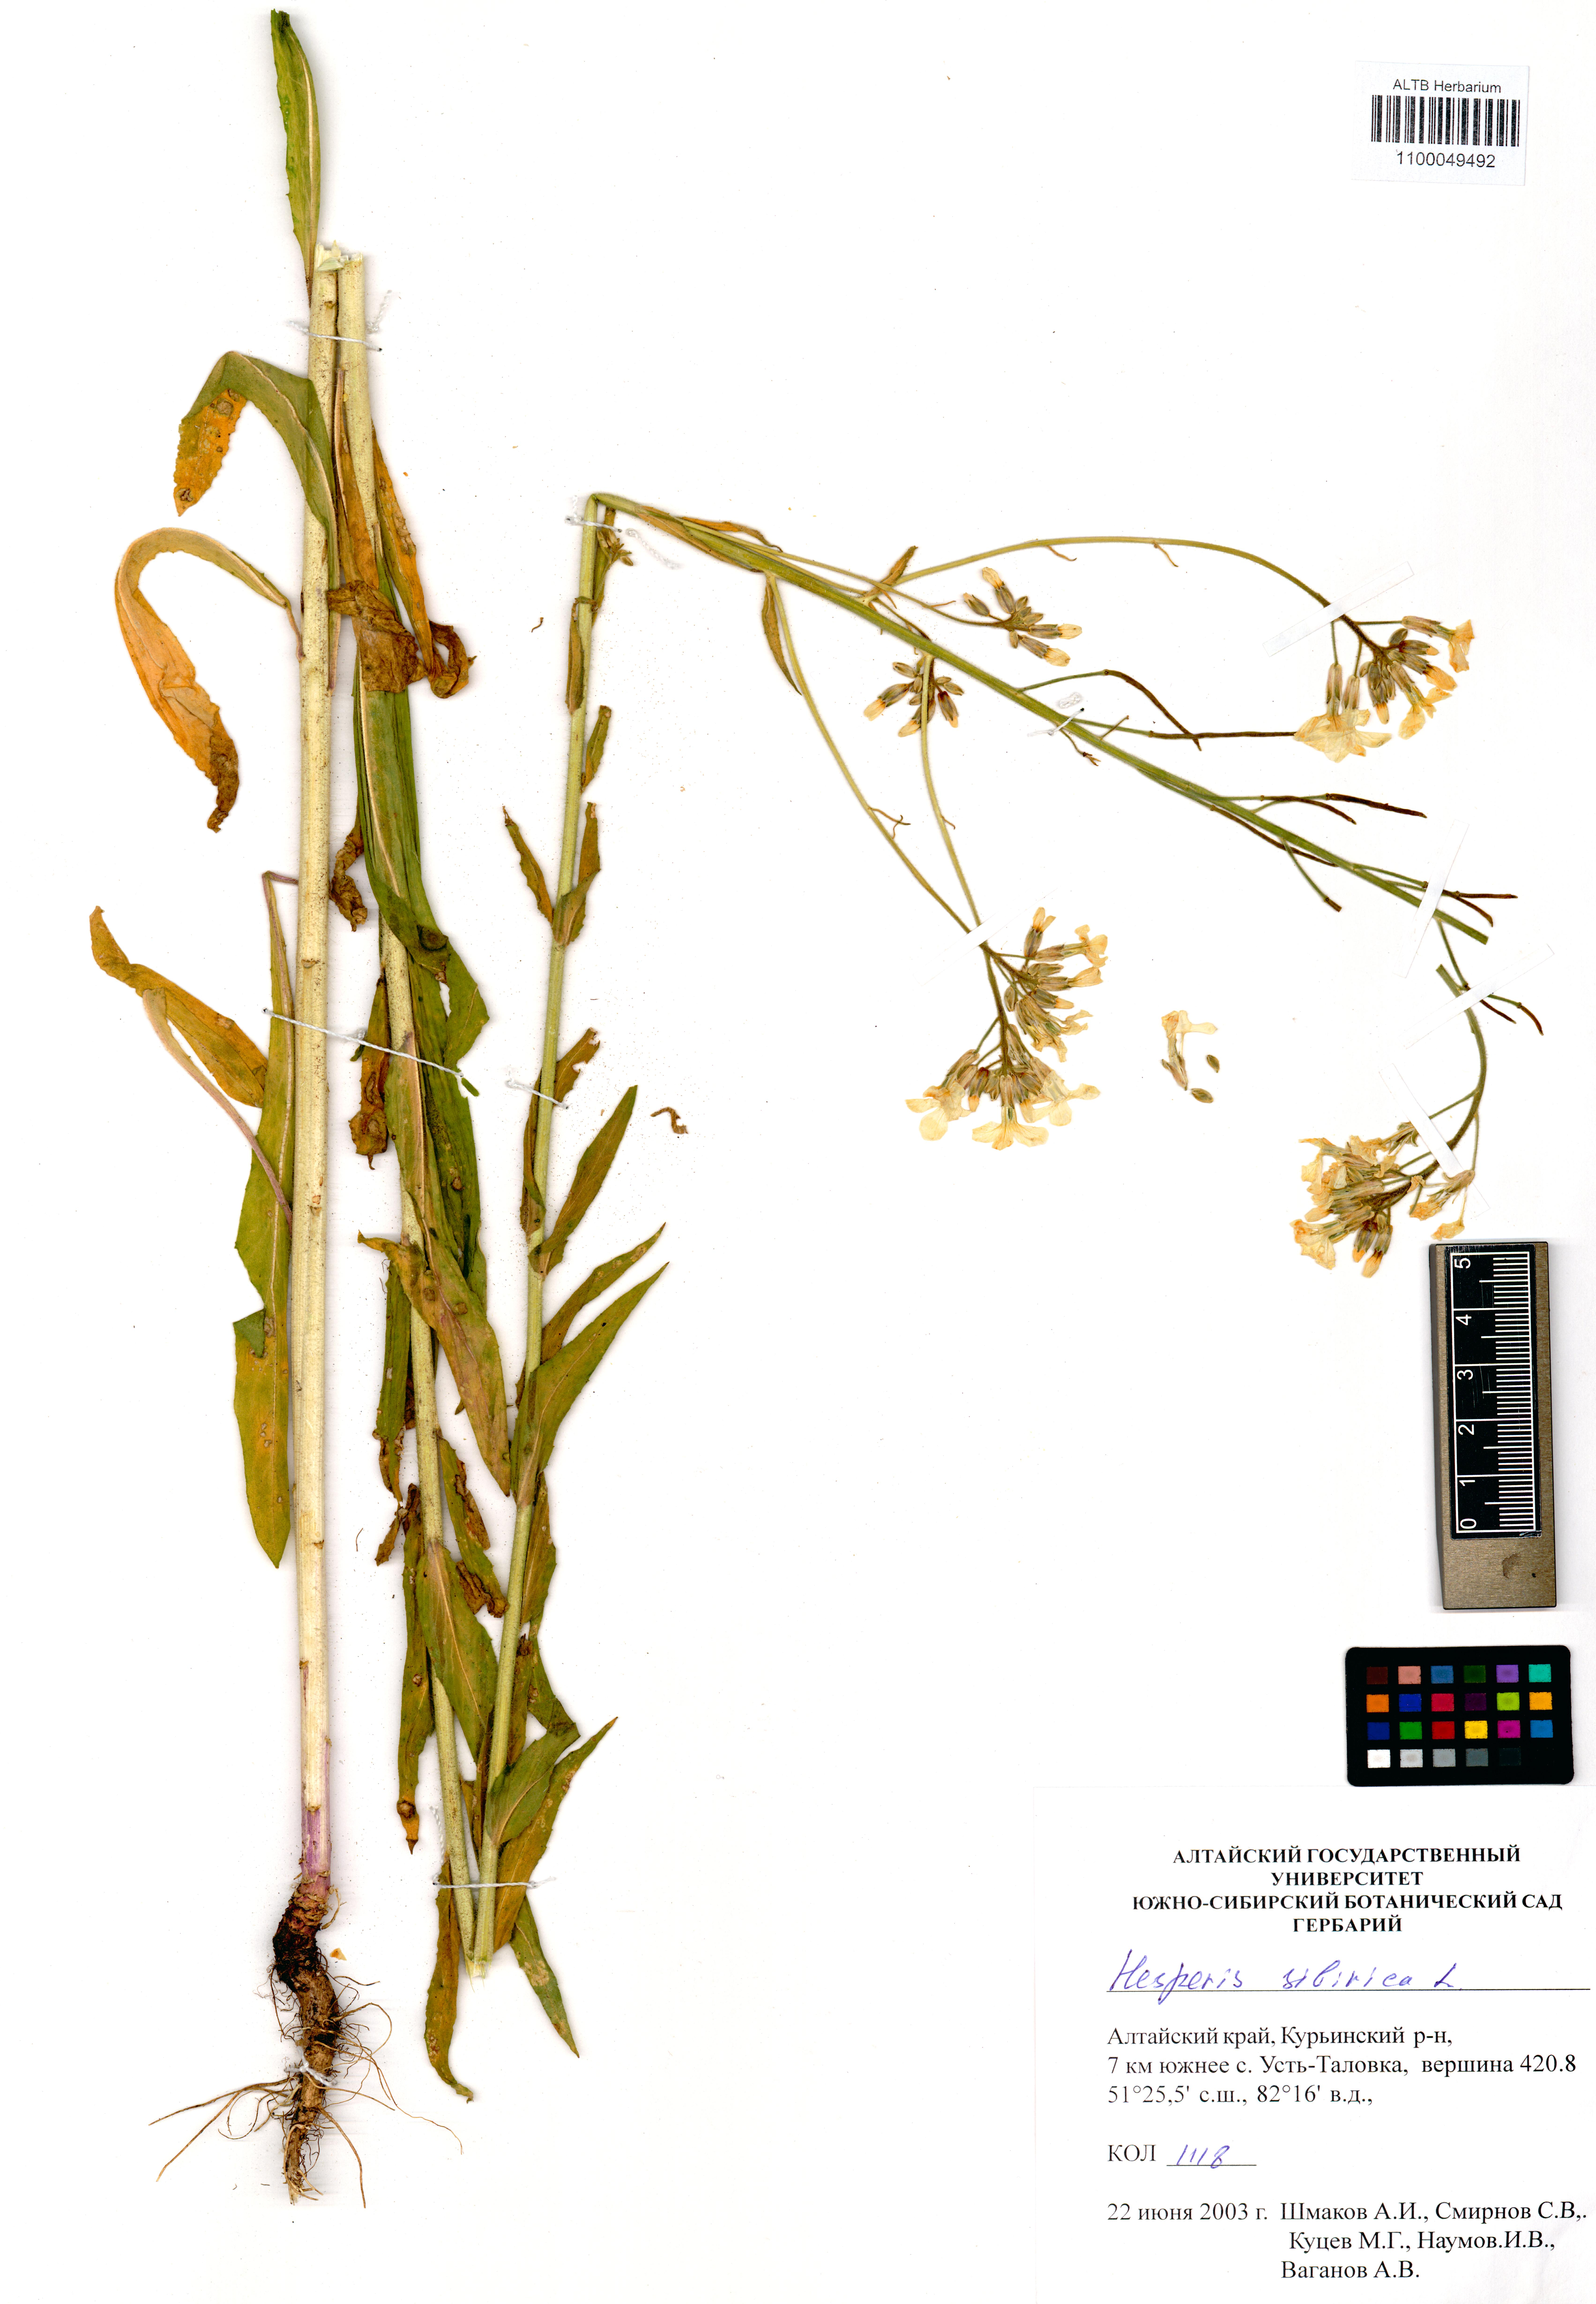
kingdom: Plantae
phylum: Tracheophyta
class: Magnoliopsida
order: Brassicales
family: Brassicaceae
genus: Hesperis
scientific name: Hesperis sibirica
